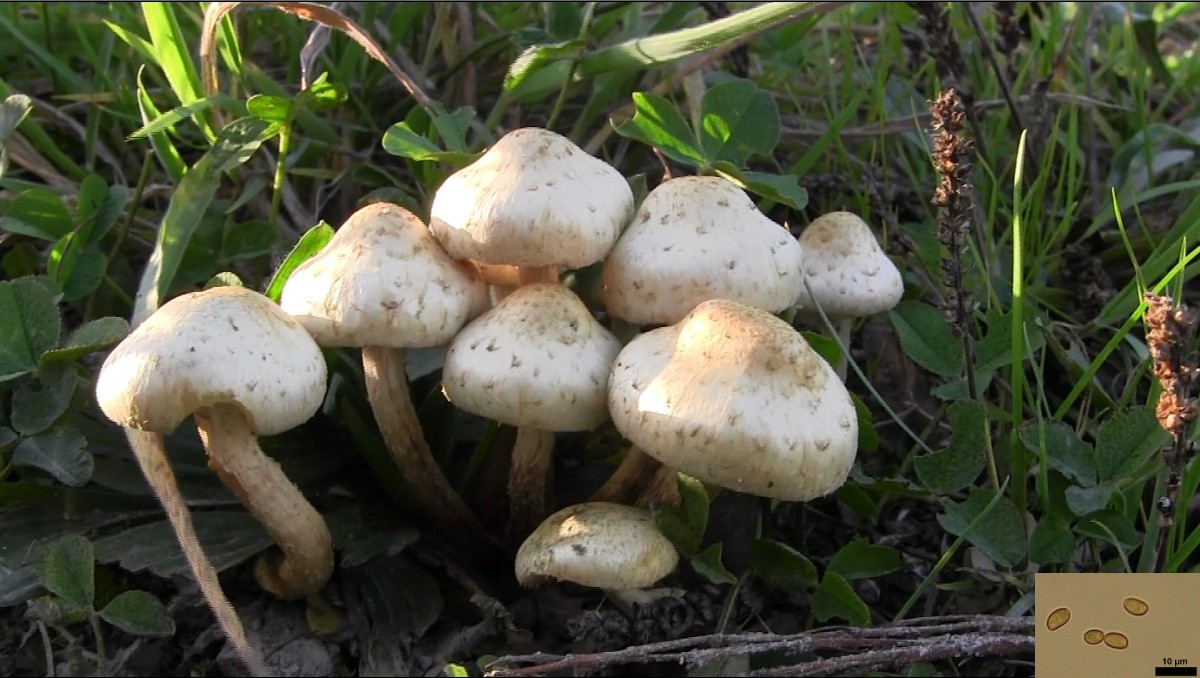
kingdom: Fungi
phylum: Basidiomycota
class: Agaricomycetes
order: Agaricales
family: Strophariaceae
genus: Pholiota
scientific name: Pholiota gummosa
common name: grøngul skælhat
